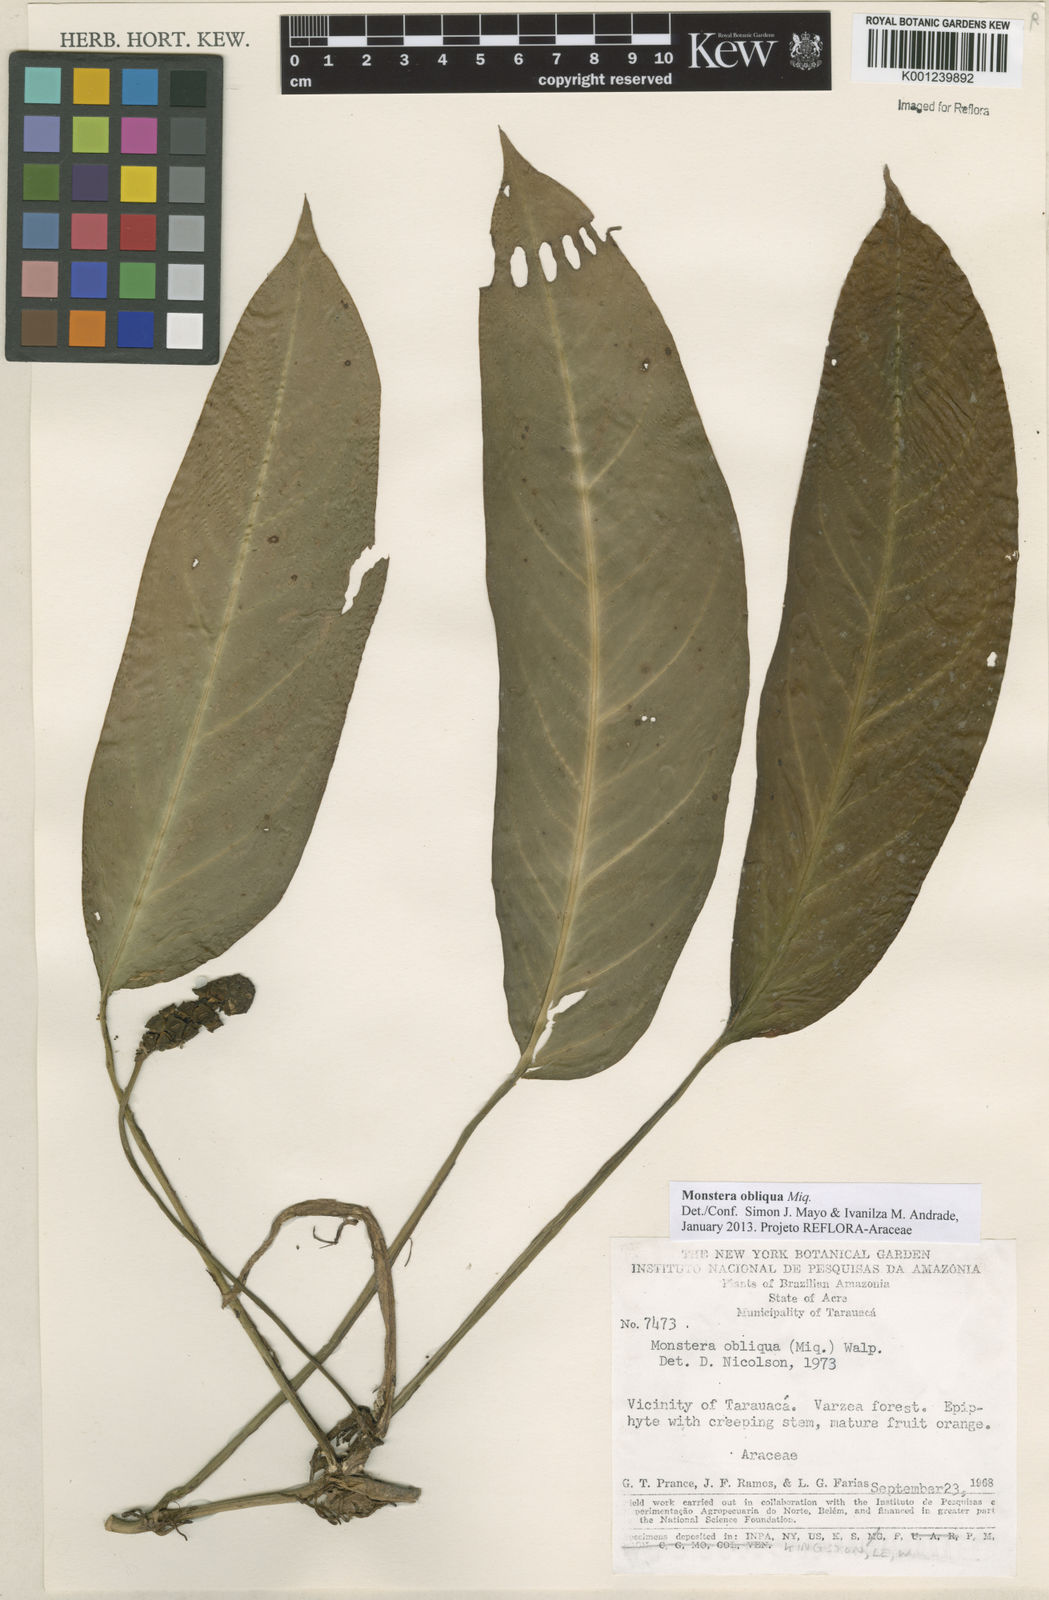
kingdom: Plantae
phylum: Tracheophyta
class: Liliopsida
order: Alismatales
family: Araceae
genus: Monstera
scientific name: Monstera obliqua
